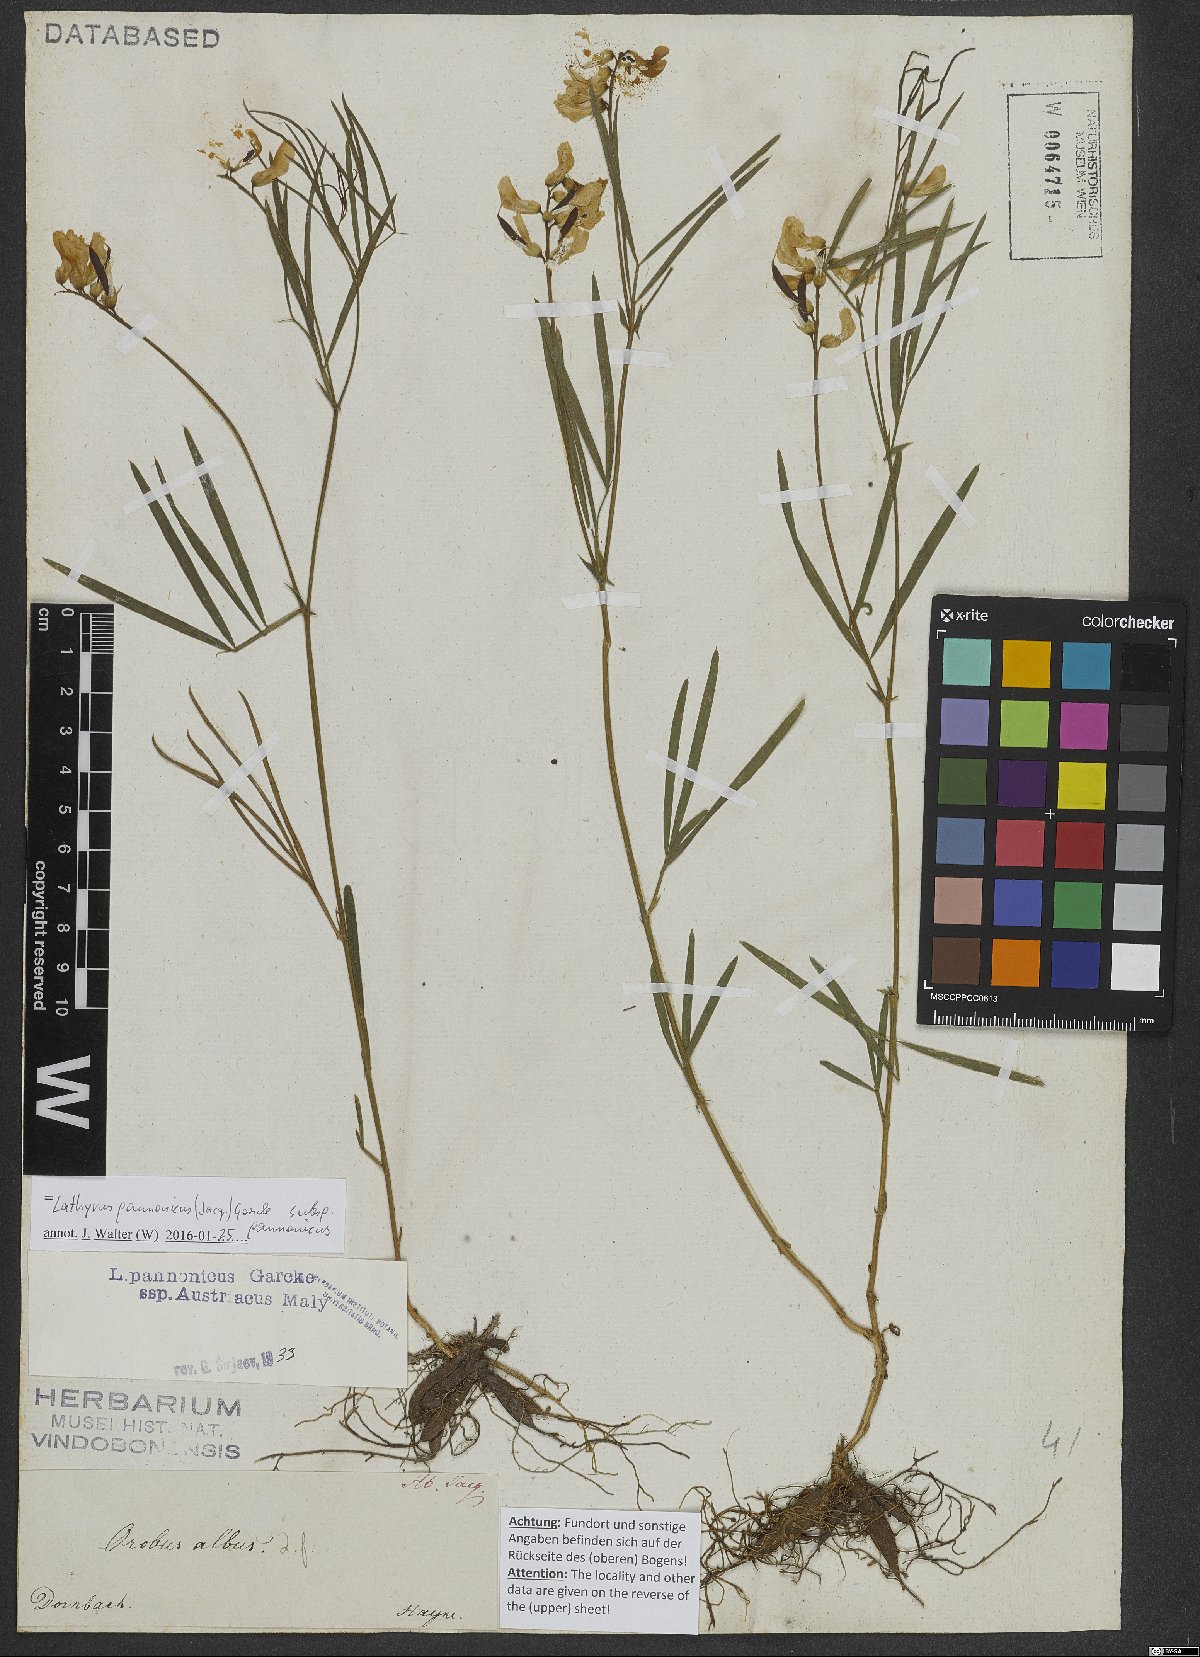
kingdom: Plantae
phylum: Tracheophyta
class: Magnoliopsida
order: Fabales
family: Fabaceae
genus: Lathyrus
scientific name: Lathyrus pannonicus
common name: Pea
